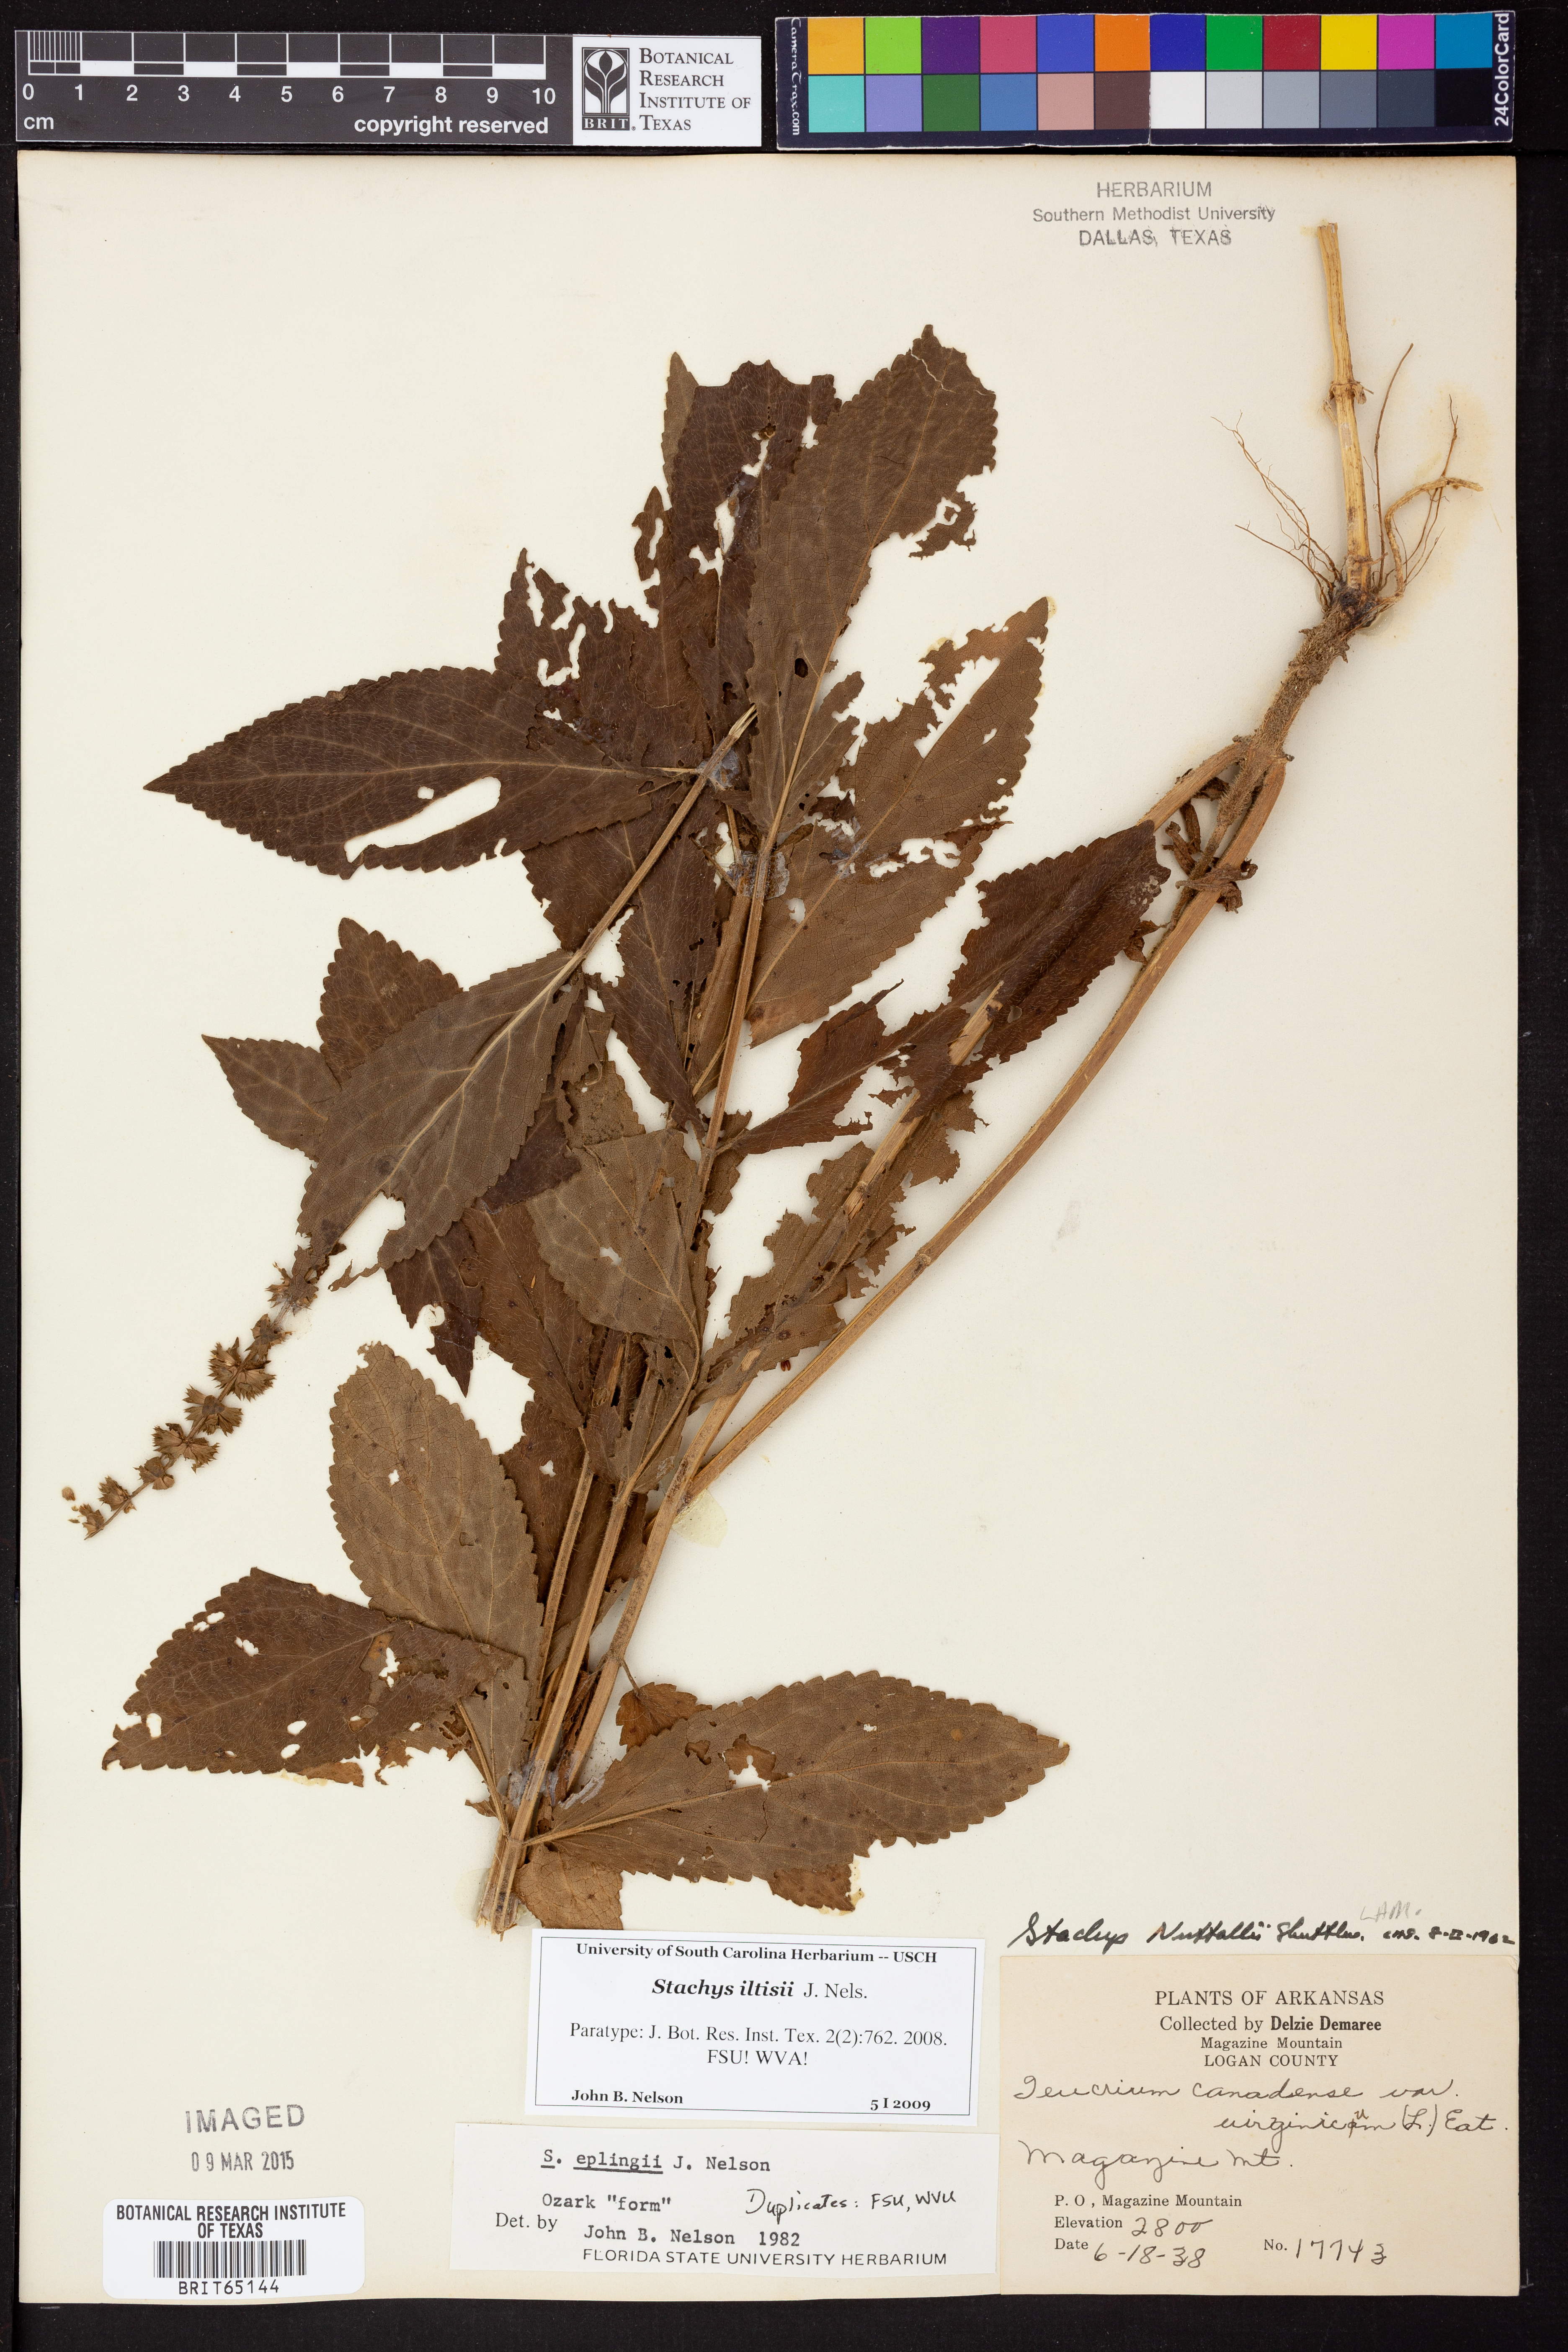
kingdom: Plantae
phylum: Tracheophyta
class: Magnoliopsida
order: Lamiales
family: Lamiaceae
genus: Stachys
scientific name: Stachys iltisii
